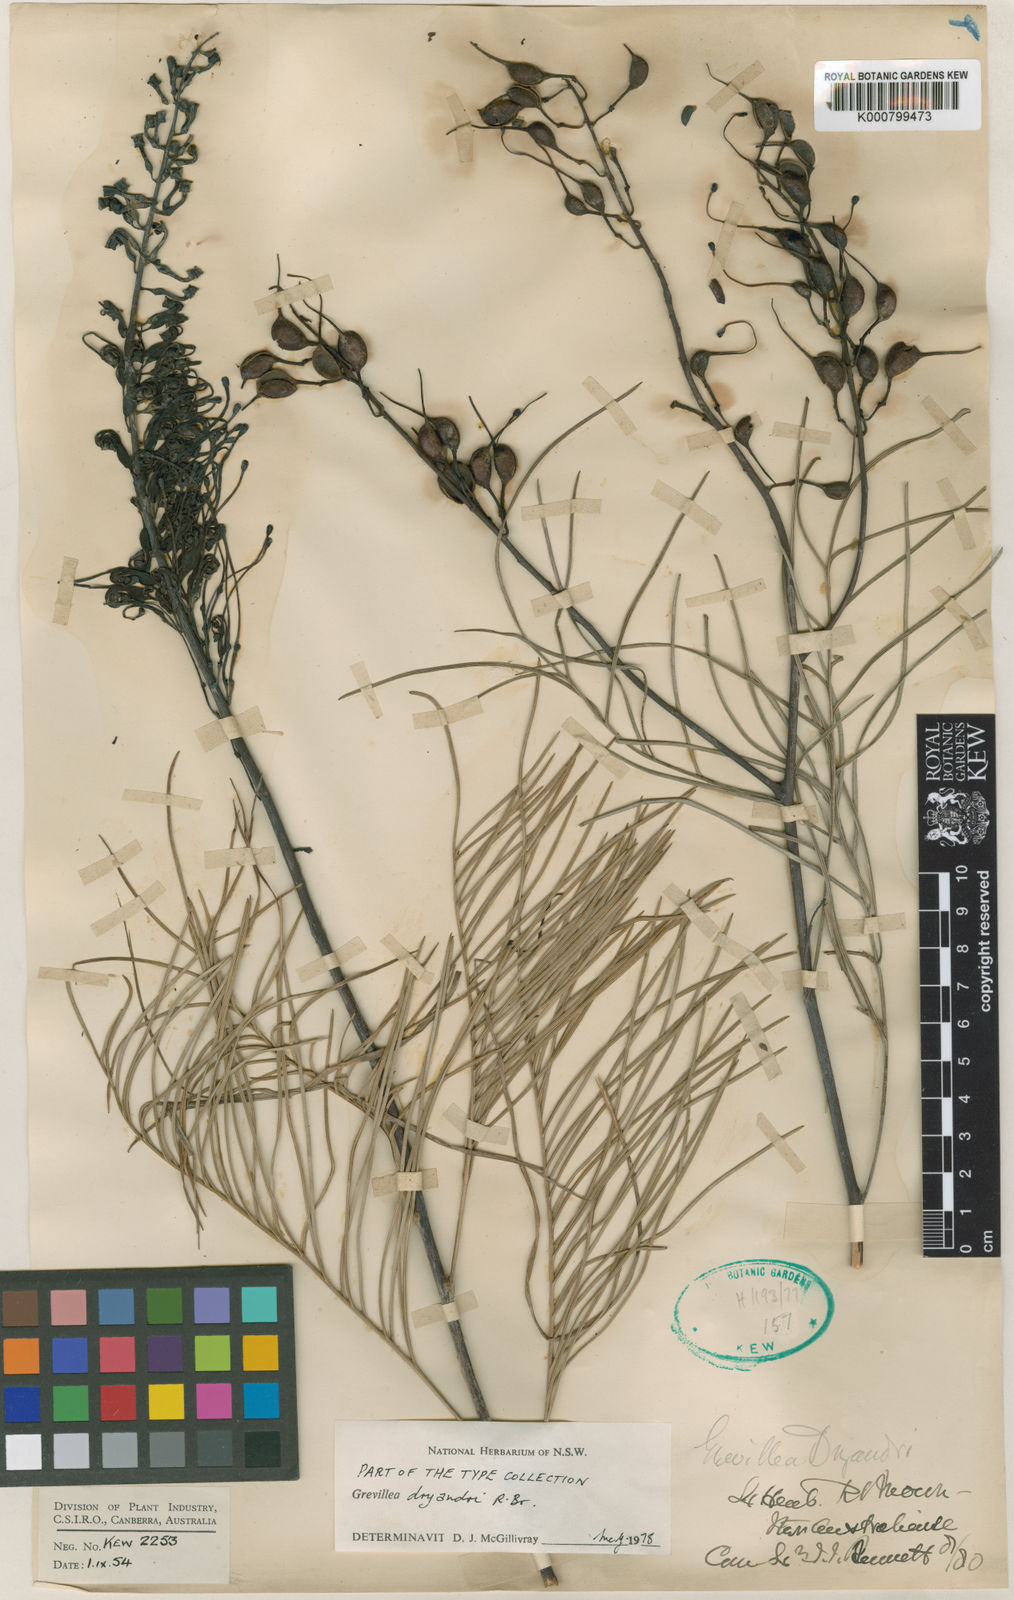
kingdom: Plantae
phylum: Tracheophyta
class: Magnoliopsida
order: Proteales
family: Proteaceae
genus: Grevillea
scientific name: Grevillea dryandri
